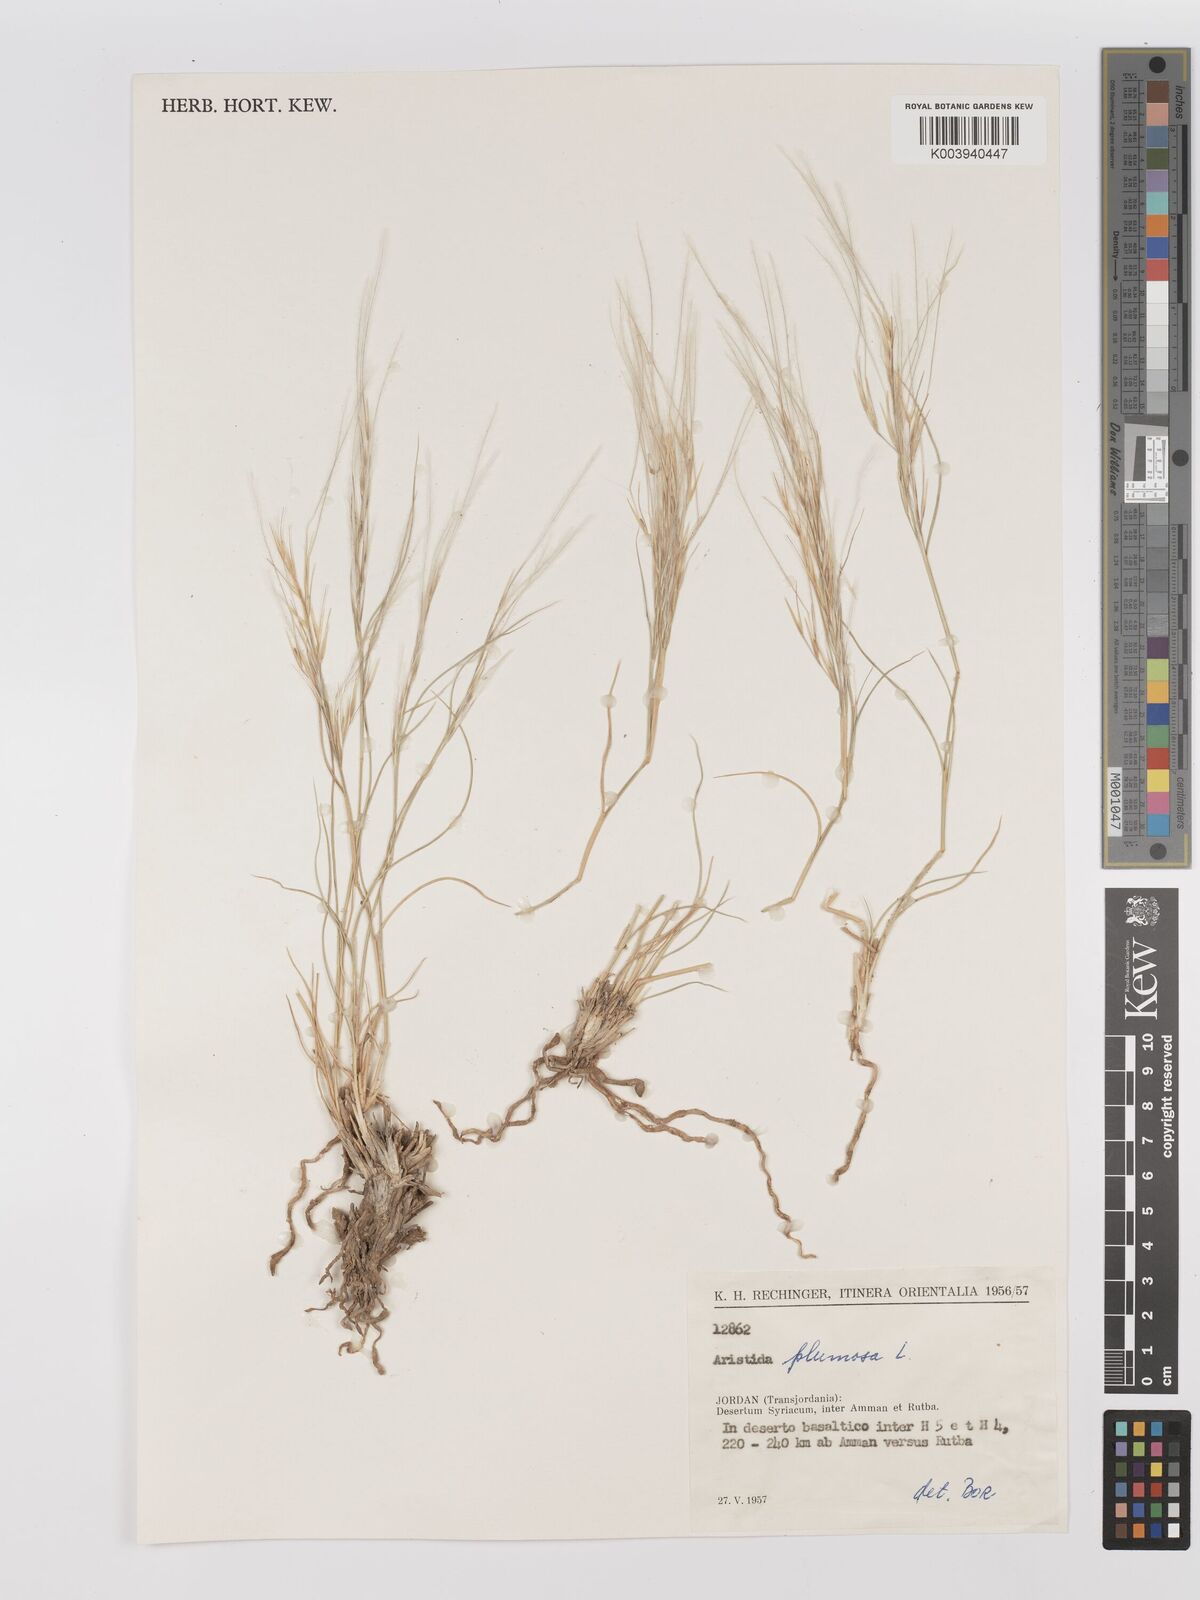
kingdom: Plantae
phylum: Tracheophyta
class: Liliopsida
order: Poales
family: Poaceae
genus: Stipagrostis
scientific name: Stipagrostis plumosa
